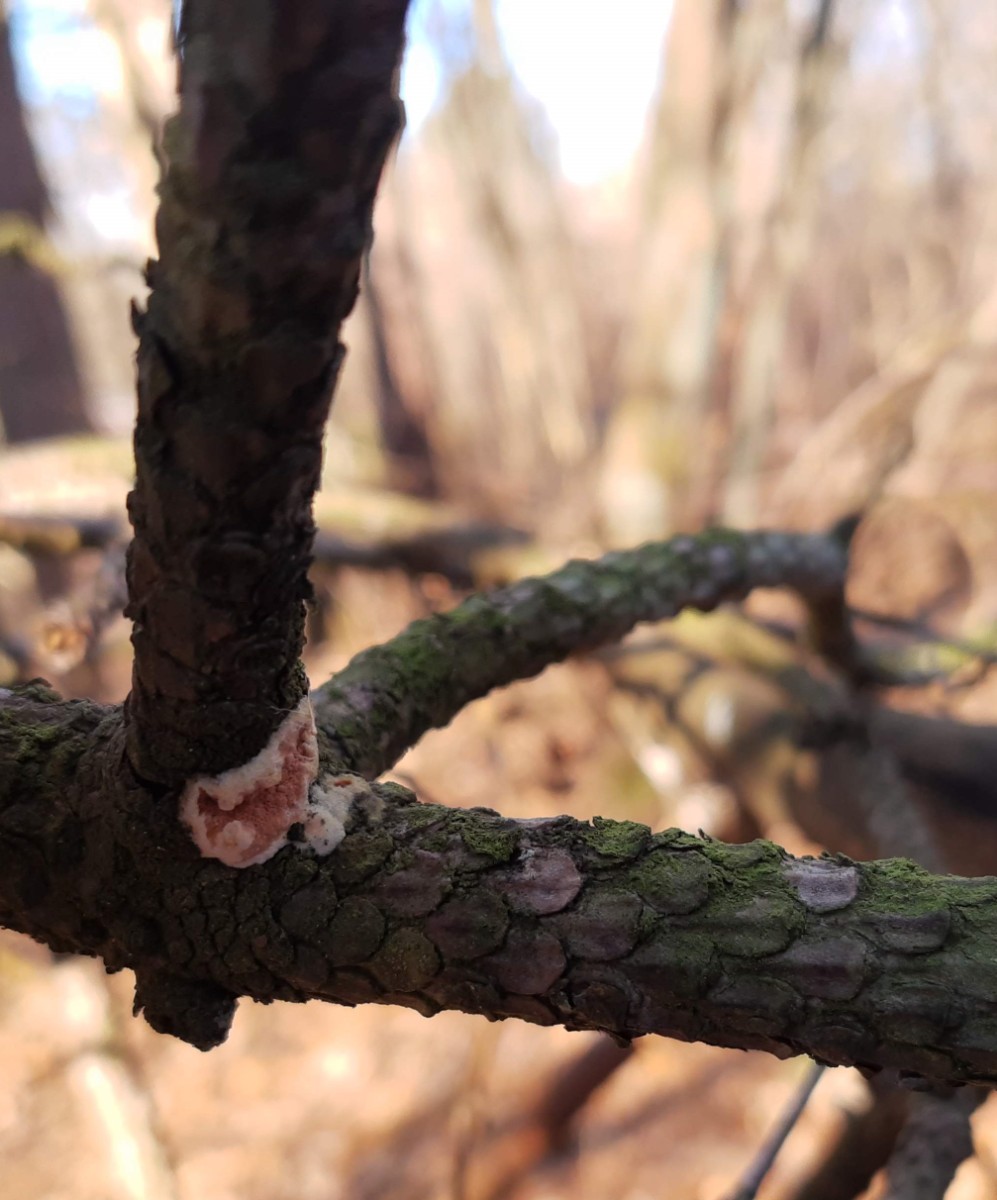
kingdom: Fungi
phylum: Basidiomycota
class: Agaricomycetes
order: Polyporales
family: Irpicaceae
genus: Meruliopsis
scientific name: Meruliopsis taxicola
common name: purpurbrun foldporesvamp
